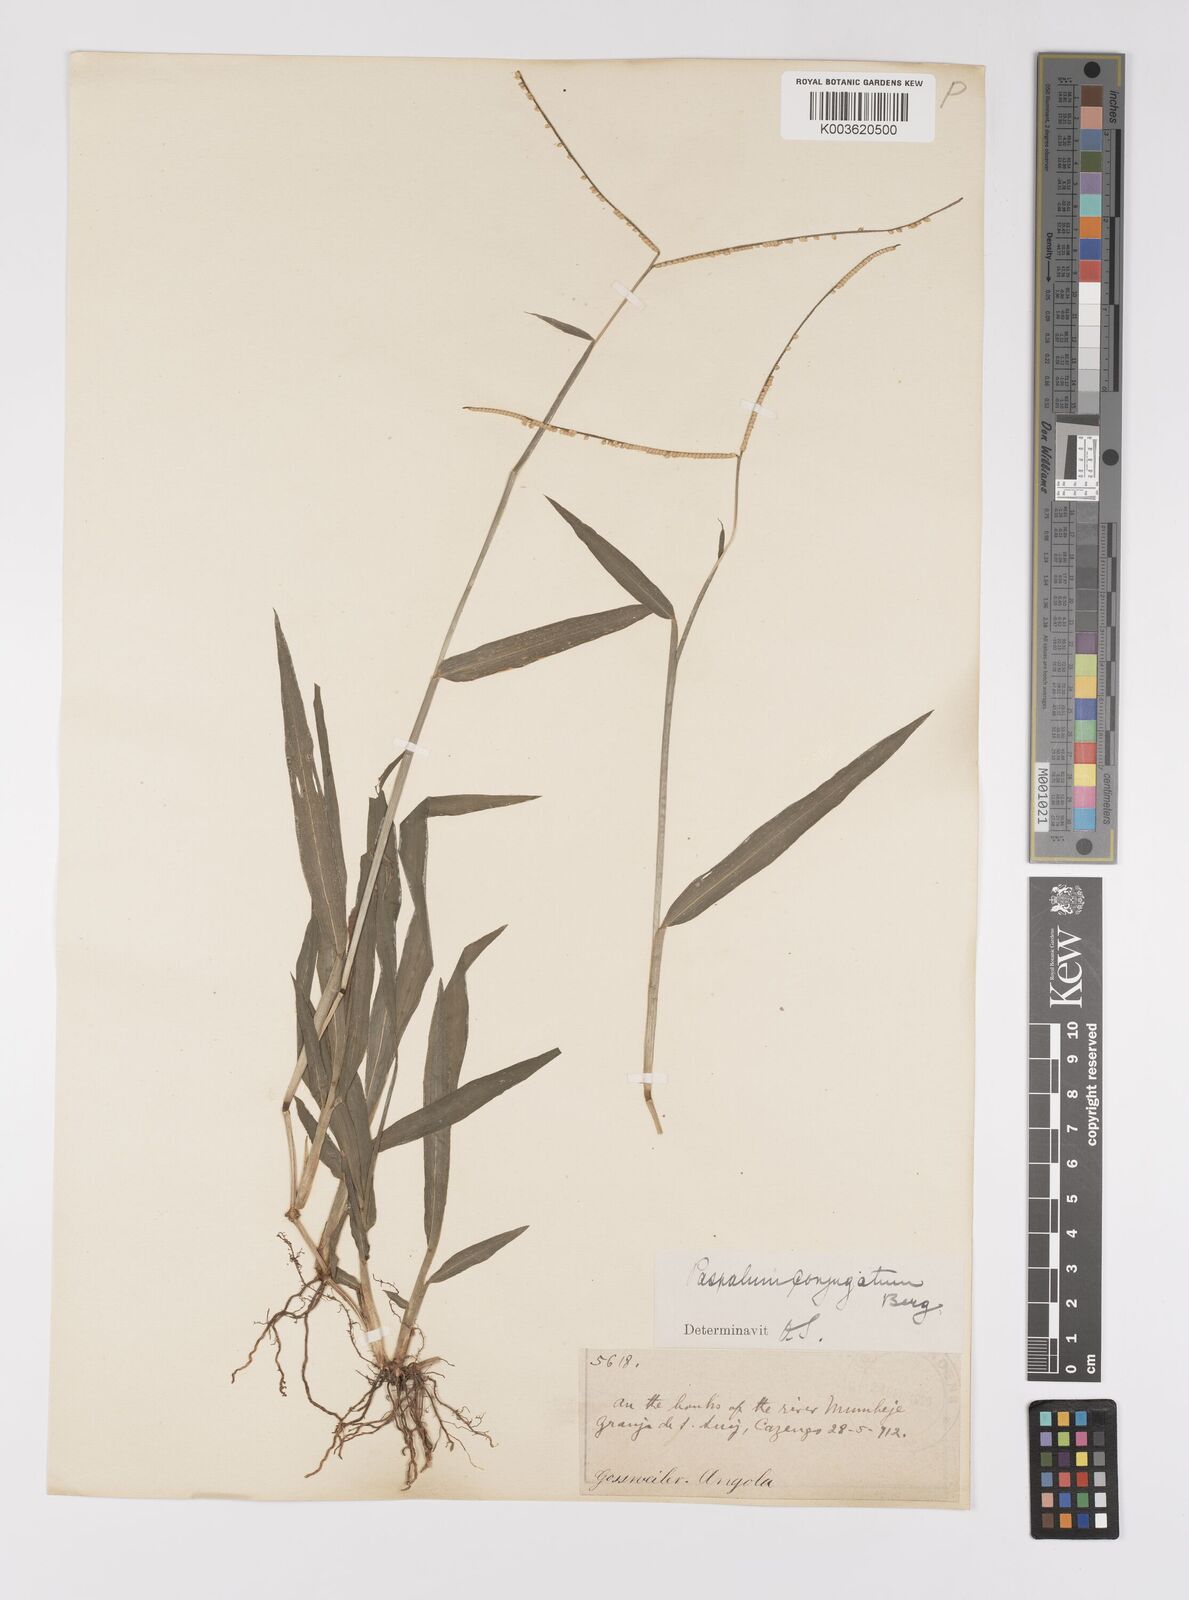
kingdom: Plantae
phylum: Tracheophyta
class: Liliopsida
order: Poales
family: Poaceae
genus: Paspalum
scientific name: Paspalum conjugatum
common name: Hilograss
